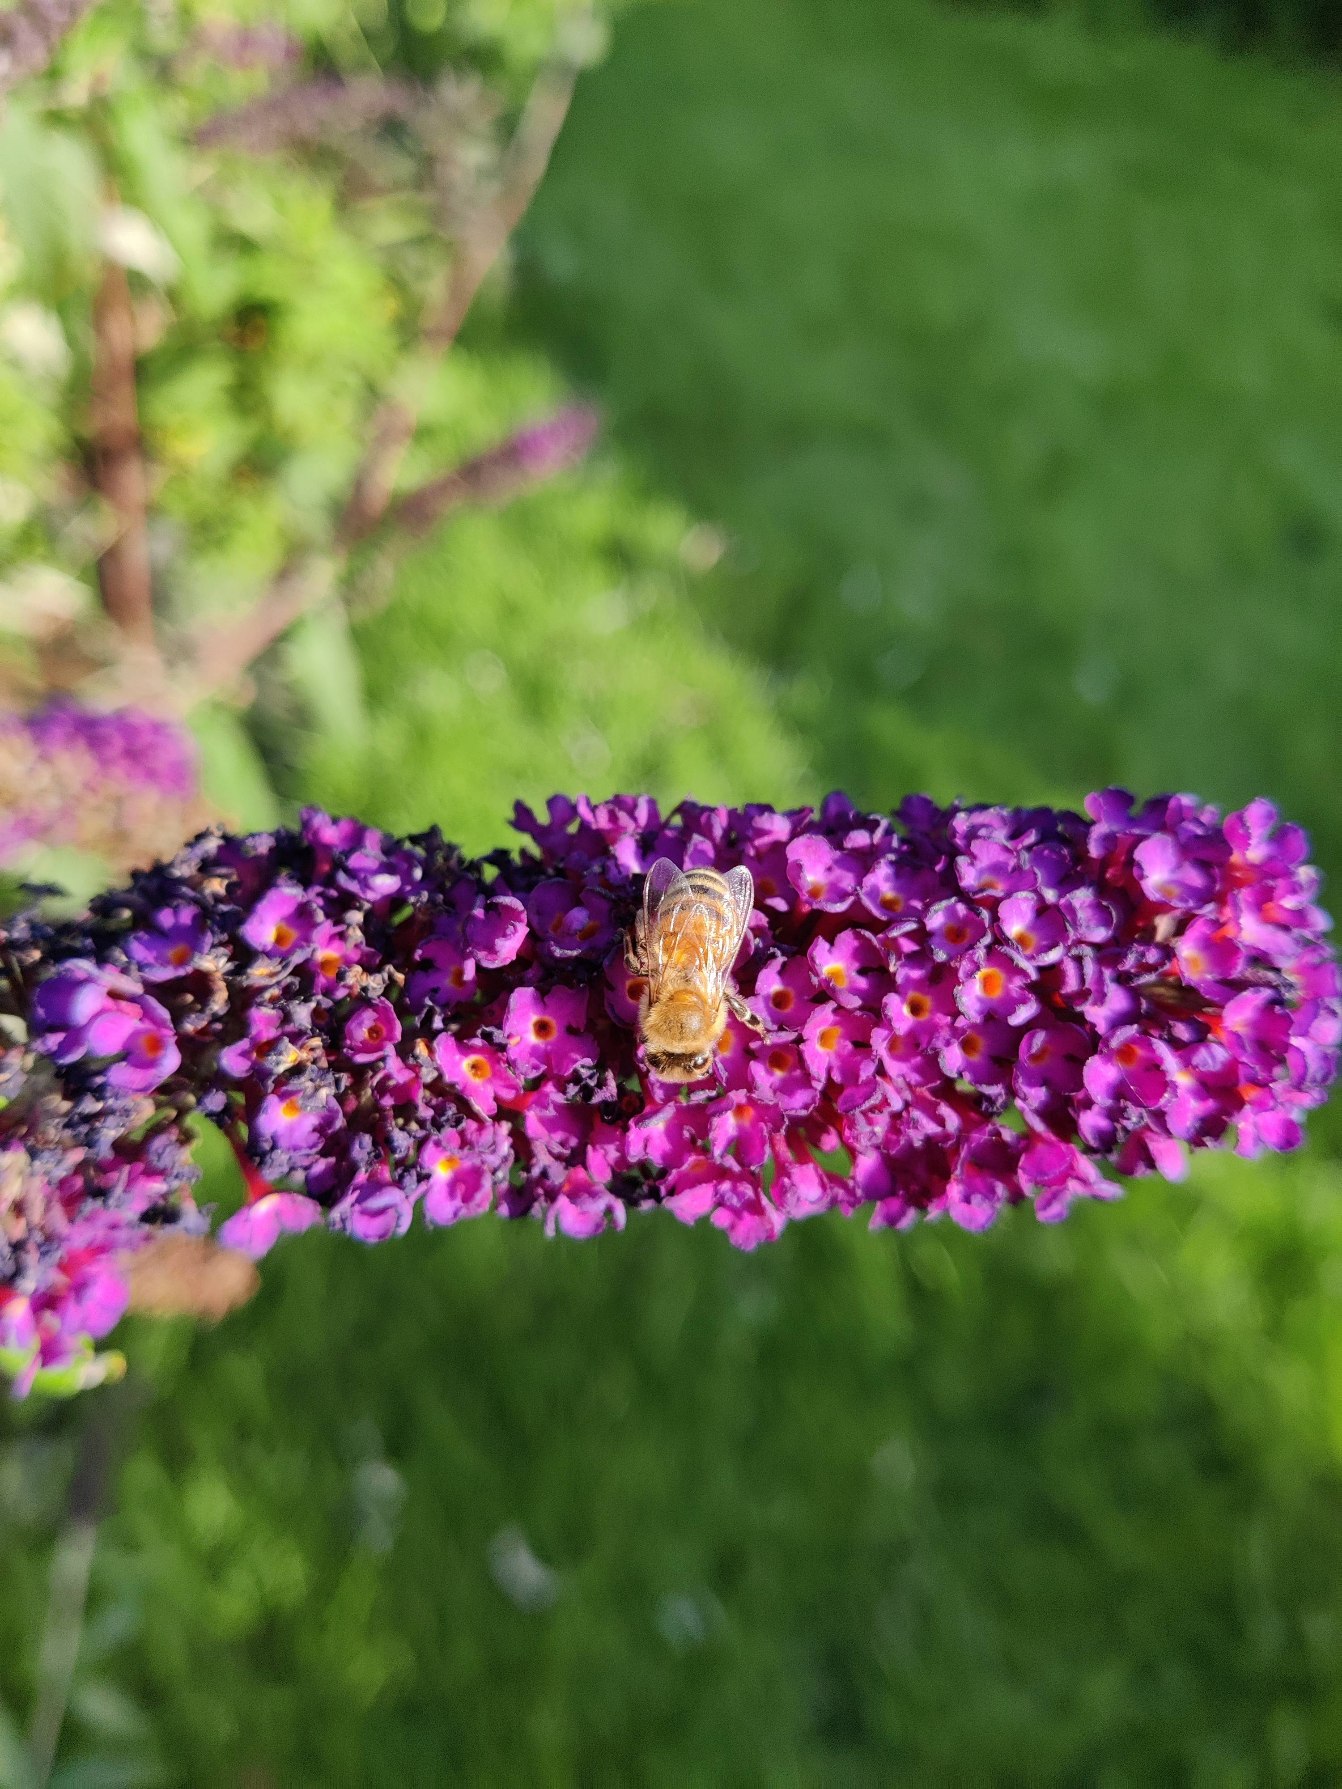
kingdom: Animalia
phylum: Arthropoda
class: Insecta
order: Hymenoptera
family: Apidae
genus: Apis
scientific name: Apis mellifera
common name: Honningbi
